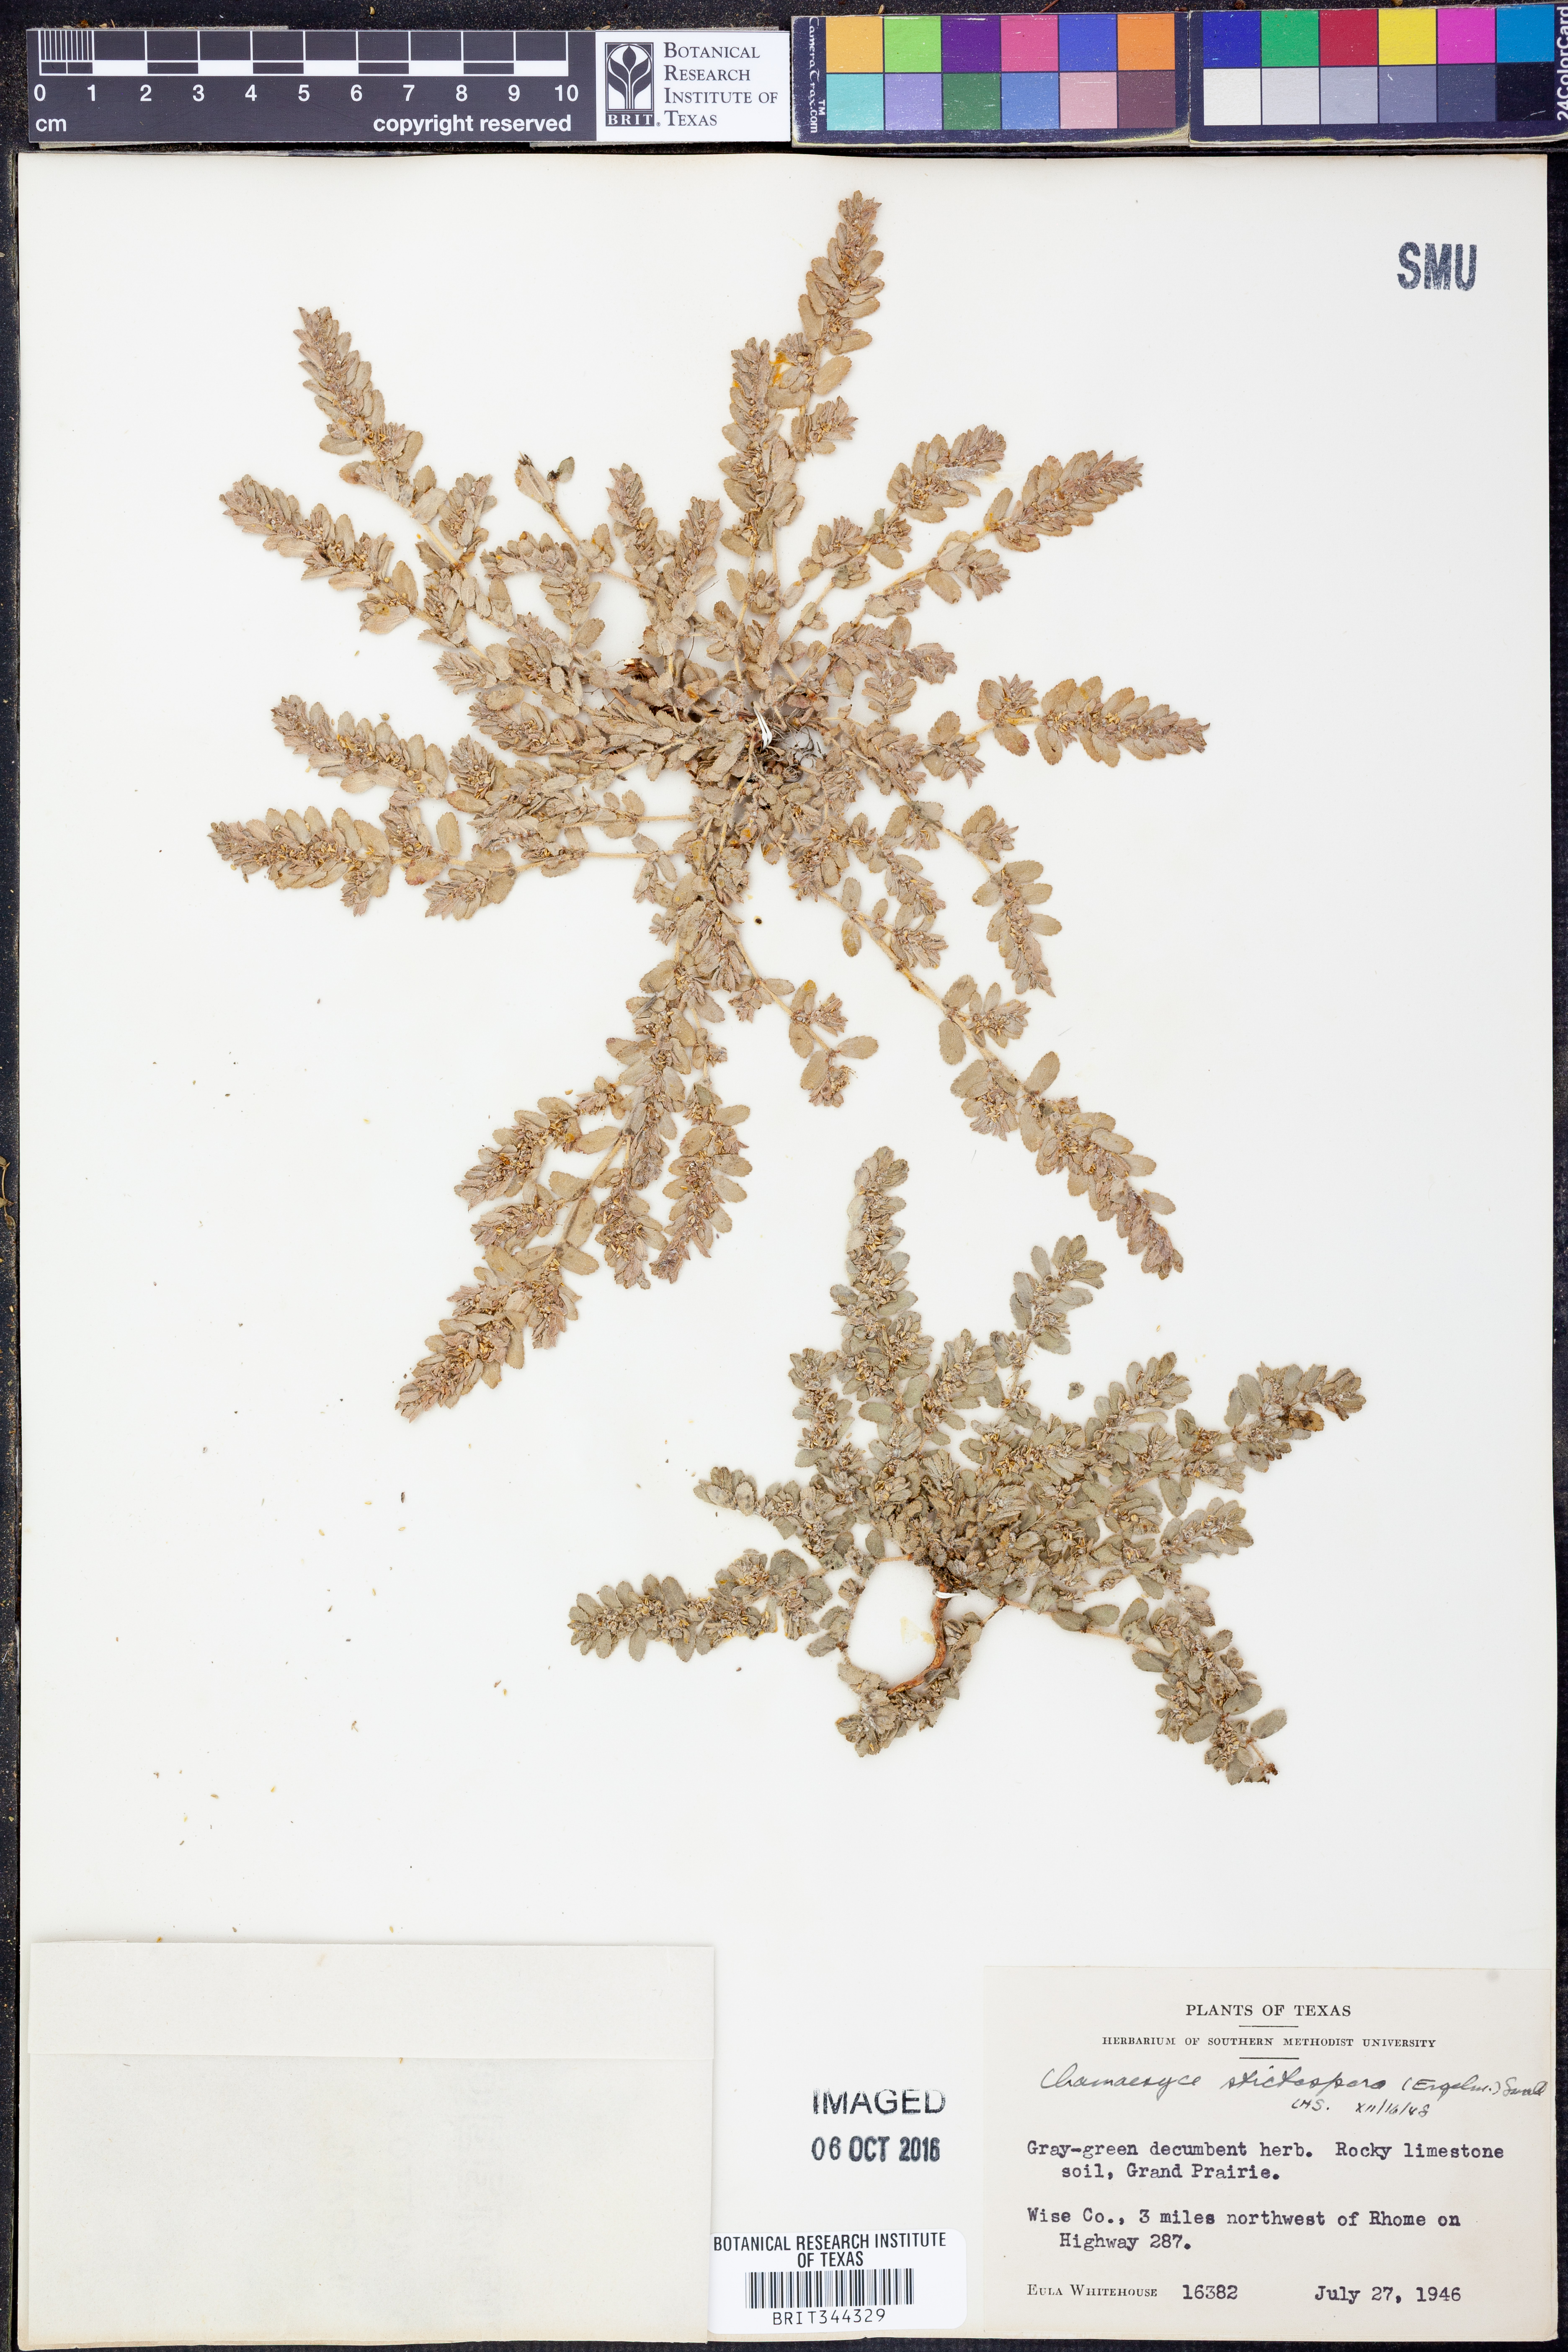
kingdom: Plantae
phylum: Tracheophyta
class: Magnoliopsida
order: Malpighiales
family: Euphorbiaceae
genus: Euphorbia
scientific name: Euphorbia stictospora
